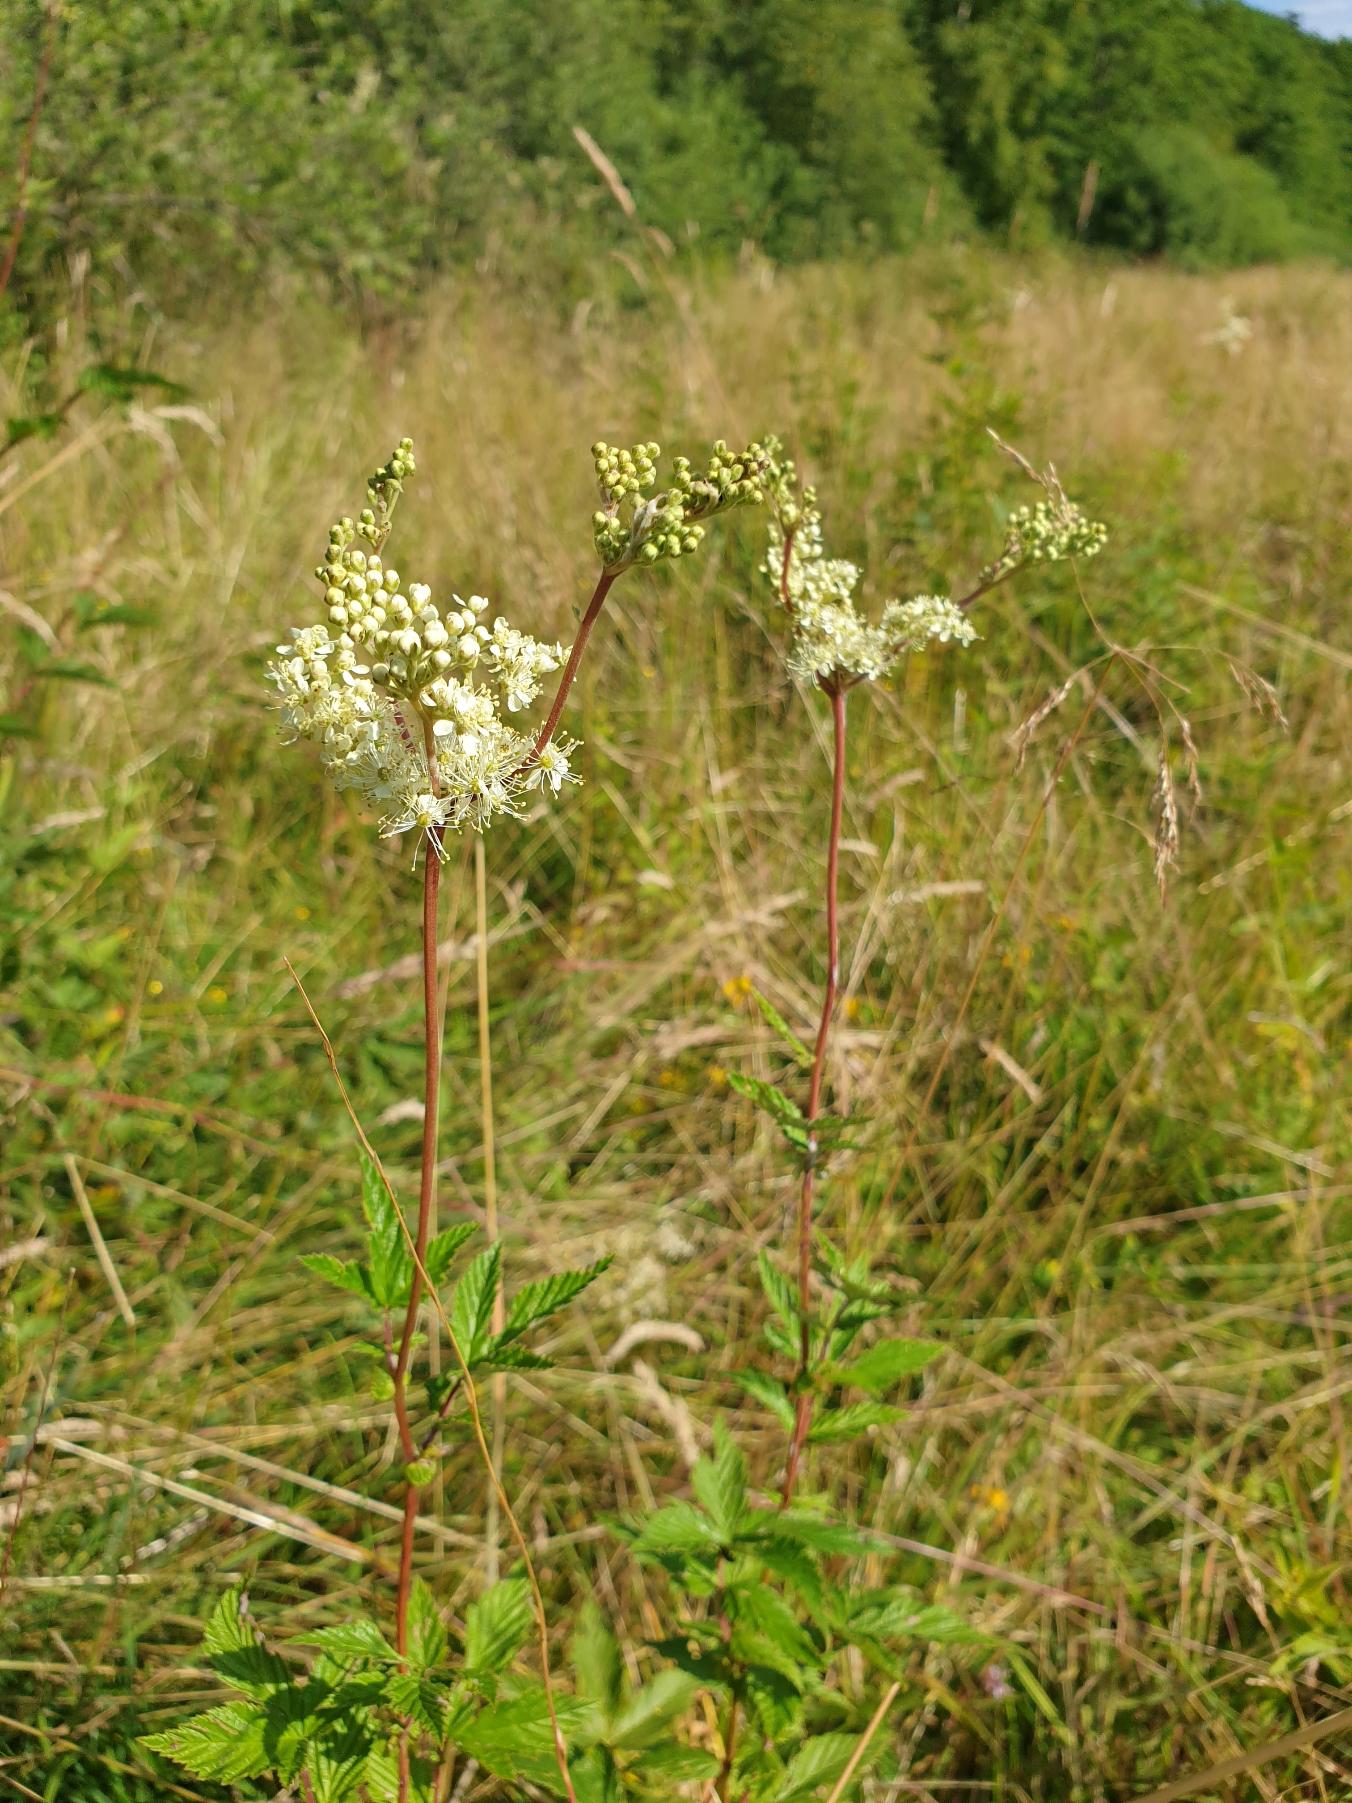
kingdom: Plantae
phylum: Tracheophyta
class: Magnoliopsida
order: Rosales
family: Rosaceae
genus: Filipendula
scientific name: Filipendula ulmaria
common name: Almindelig mjødurt
